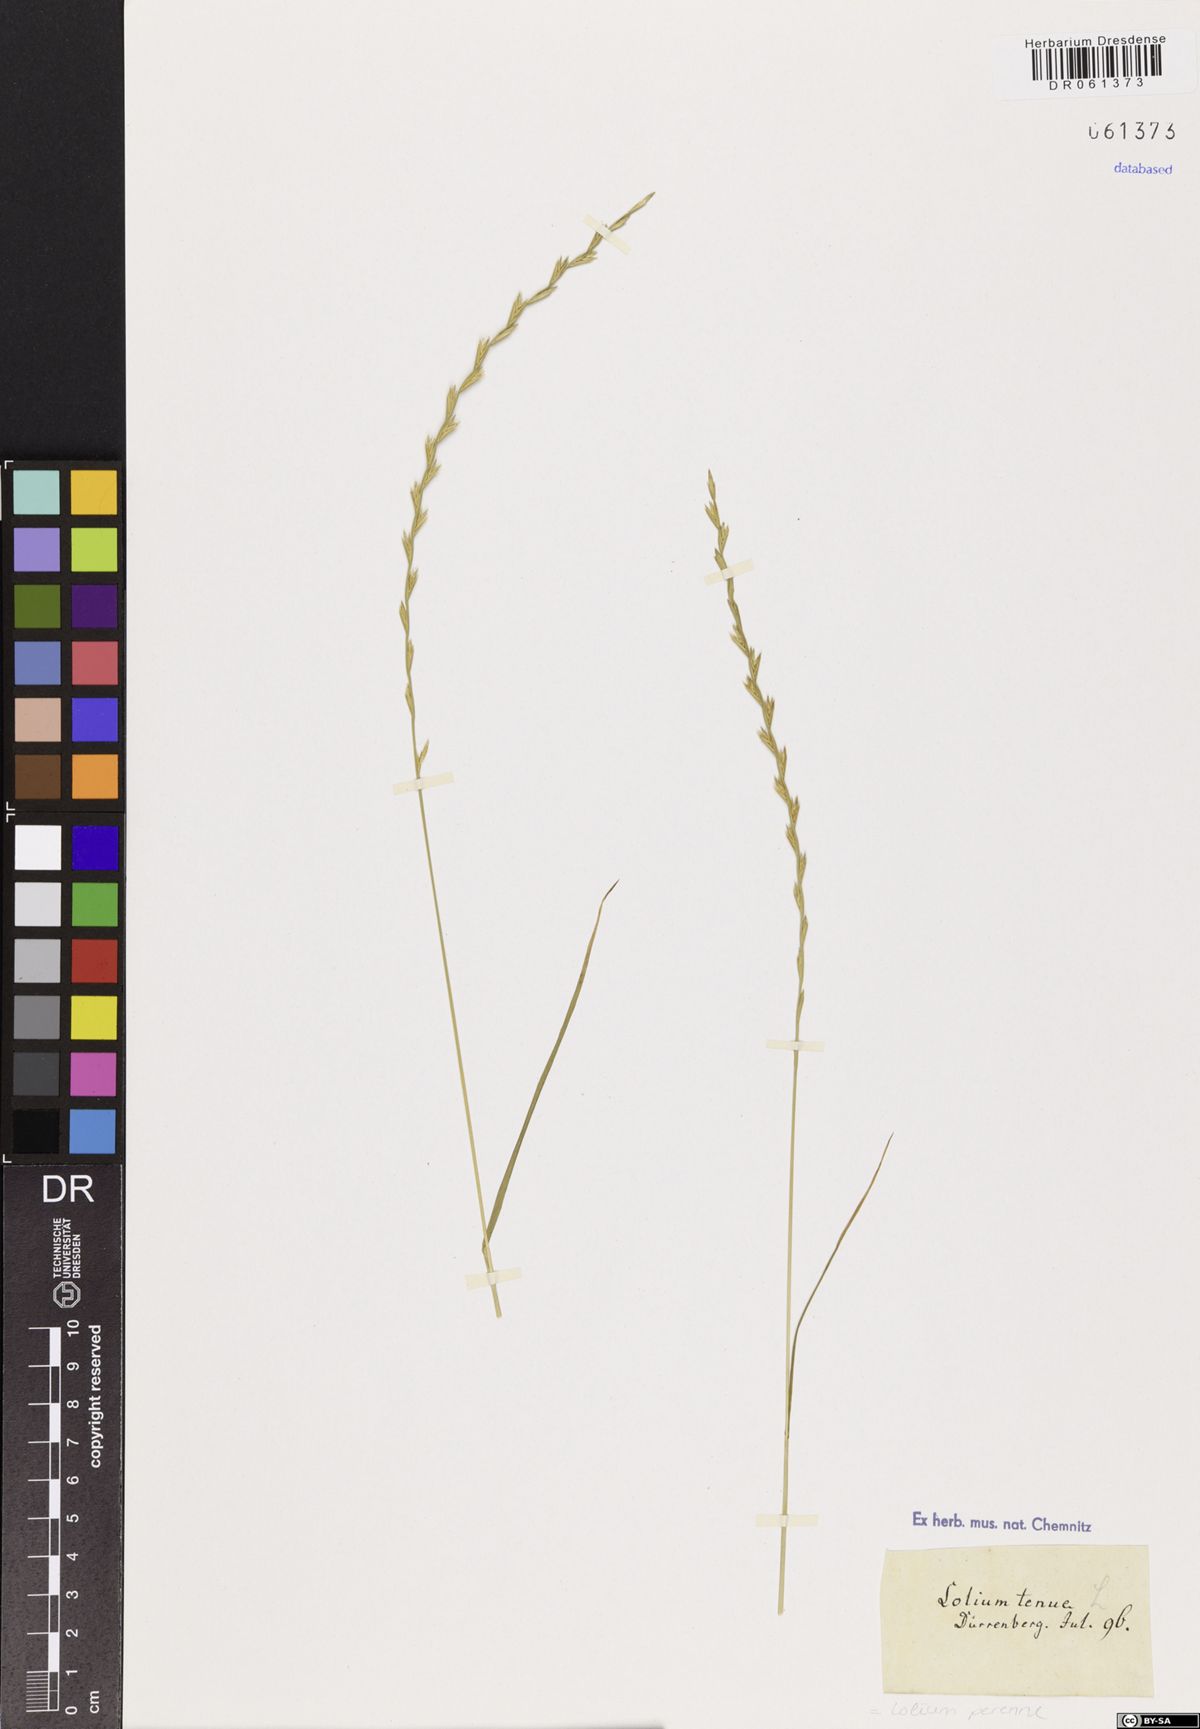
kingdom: Plantae
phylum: Tracheophyta
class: Liliopsida
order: Poales
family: Poaceae
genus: Lolium
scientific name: Lolium perenne
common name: Perennial ryegrass
